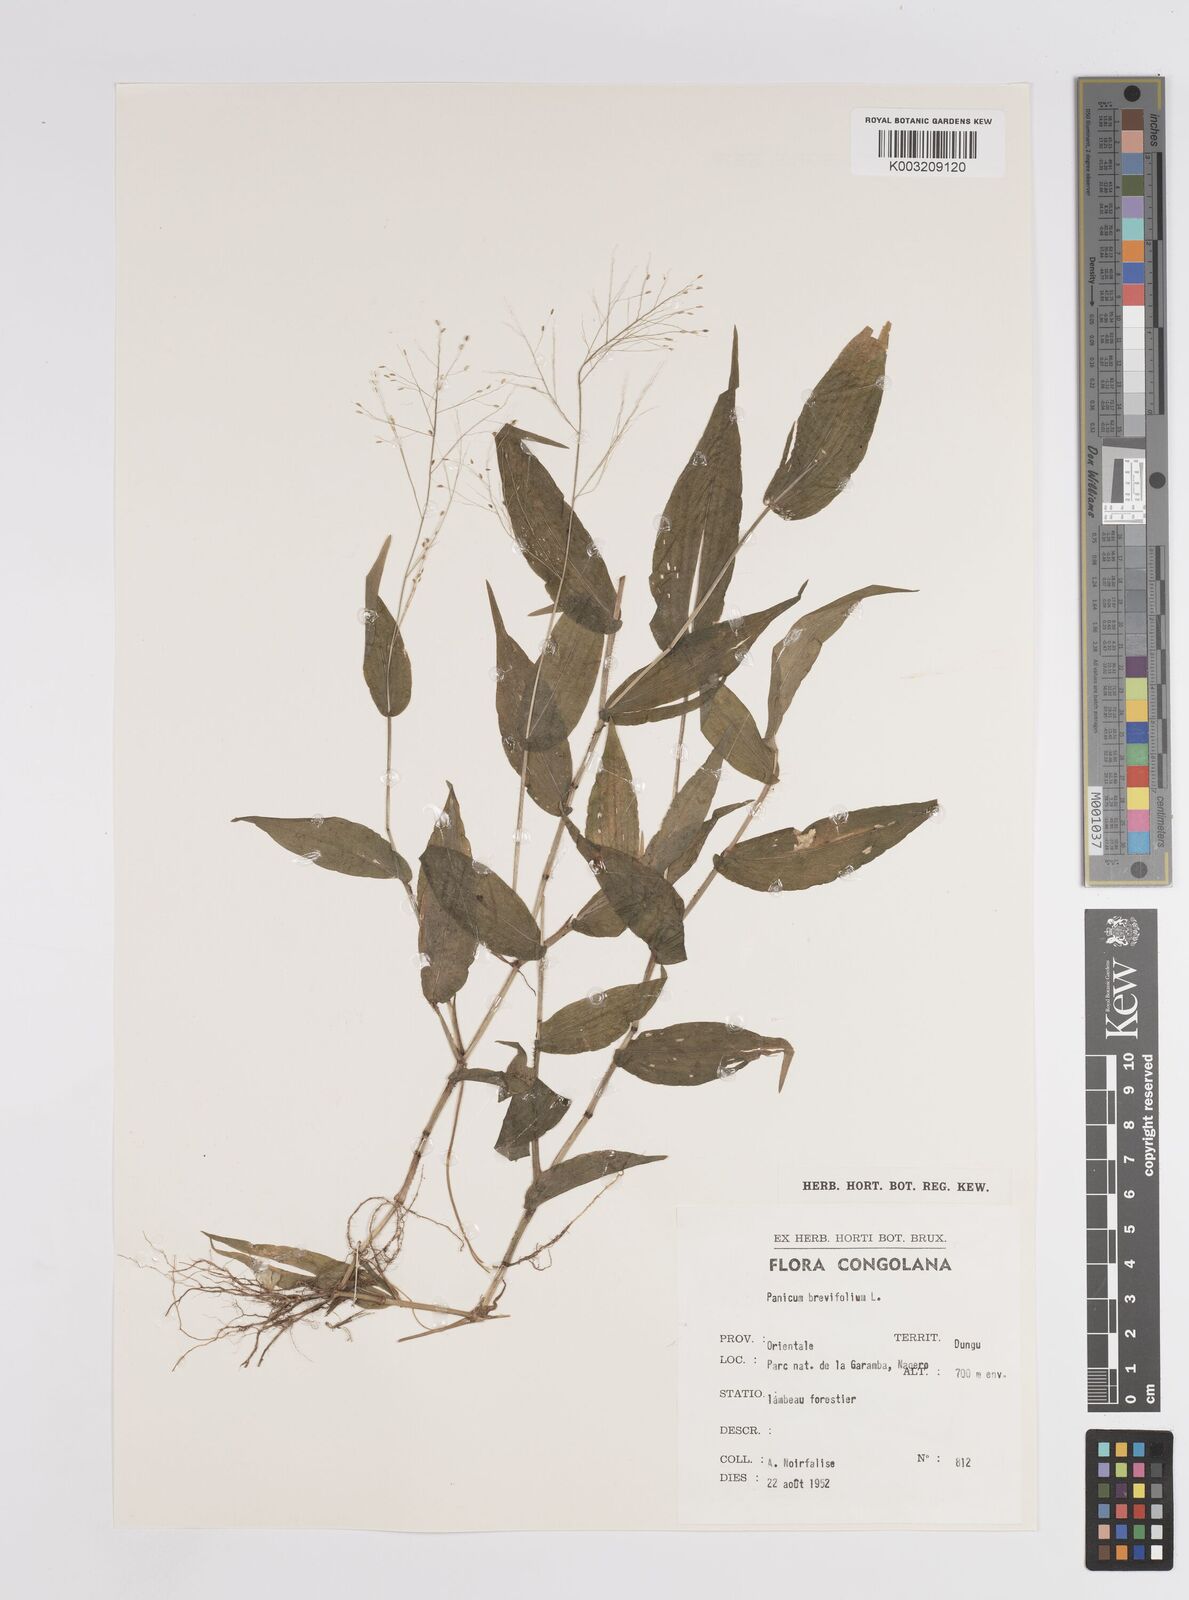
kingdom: Plantae
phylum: Tracheophyta
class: Liliopsida
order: Poales
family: Poaceae
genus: Panicum
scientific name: Panicum brevifolium
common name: Shortleaf panic grass
